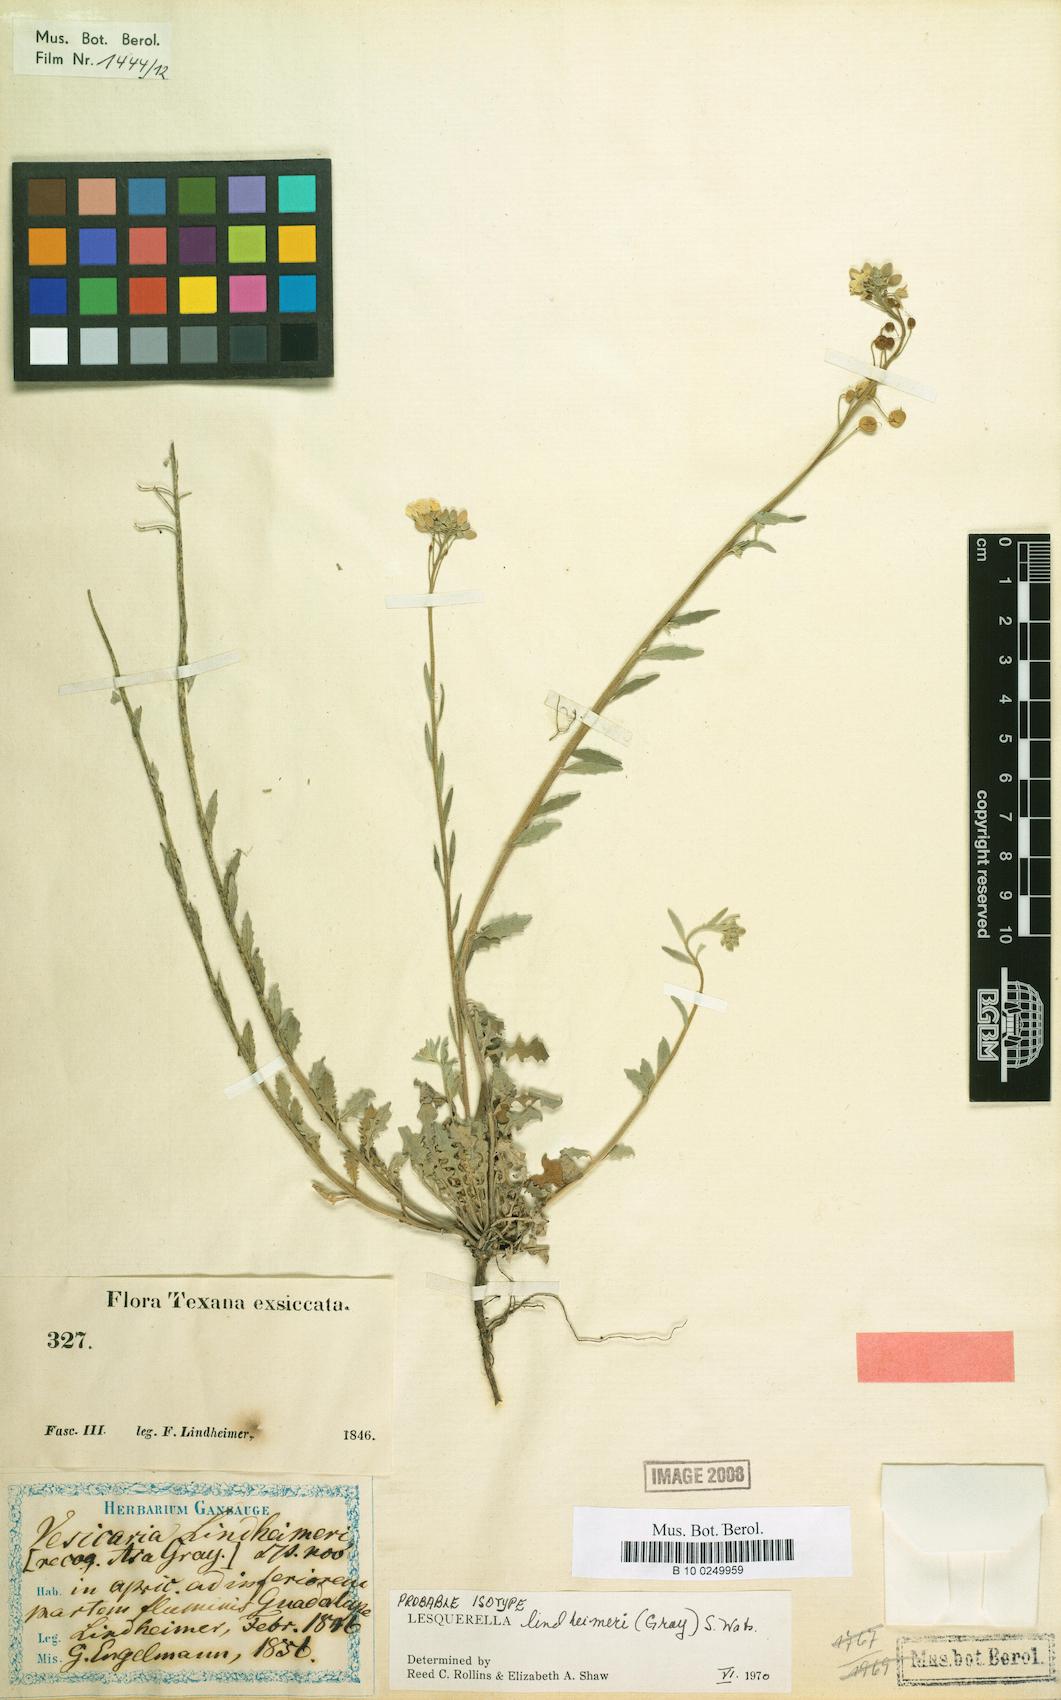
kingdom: Plantae
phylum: Tracheophyta
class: Magnoliopsida
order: Brassicales
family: Brassicaceae
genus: Physaria
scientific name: Physaria lindheimeri
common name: Lindheimer's bladderpod
